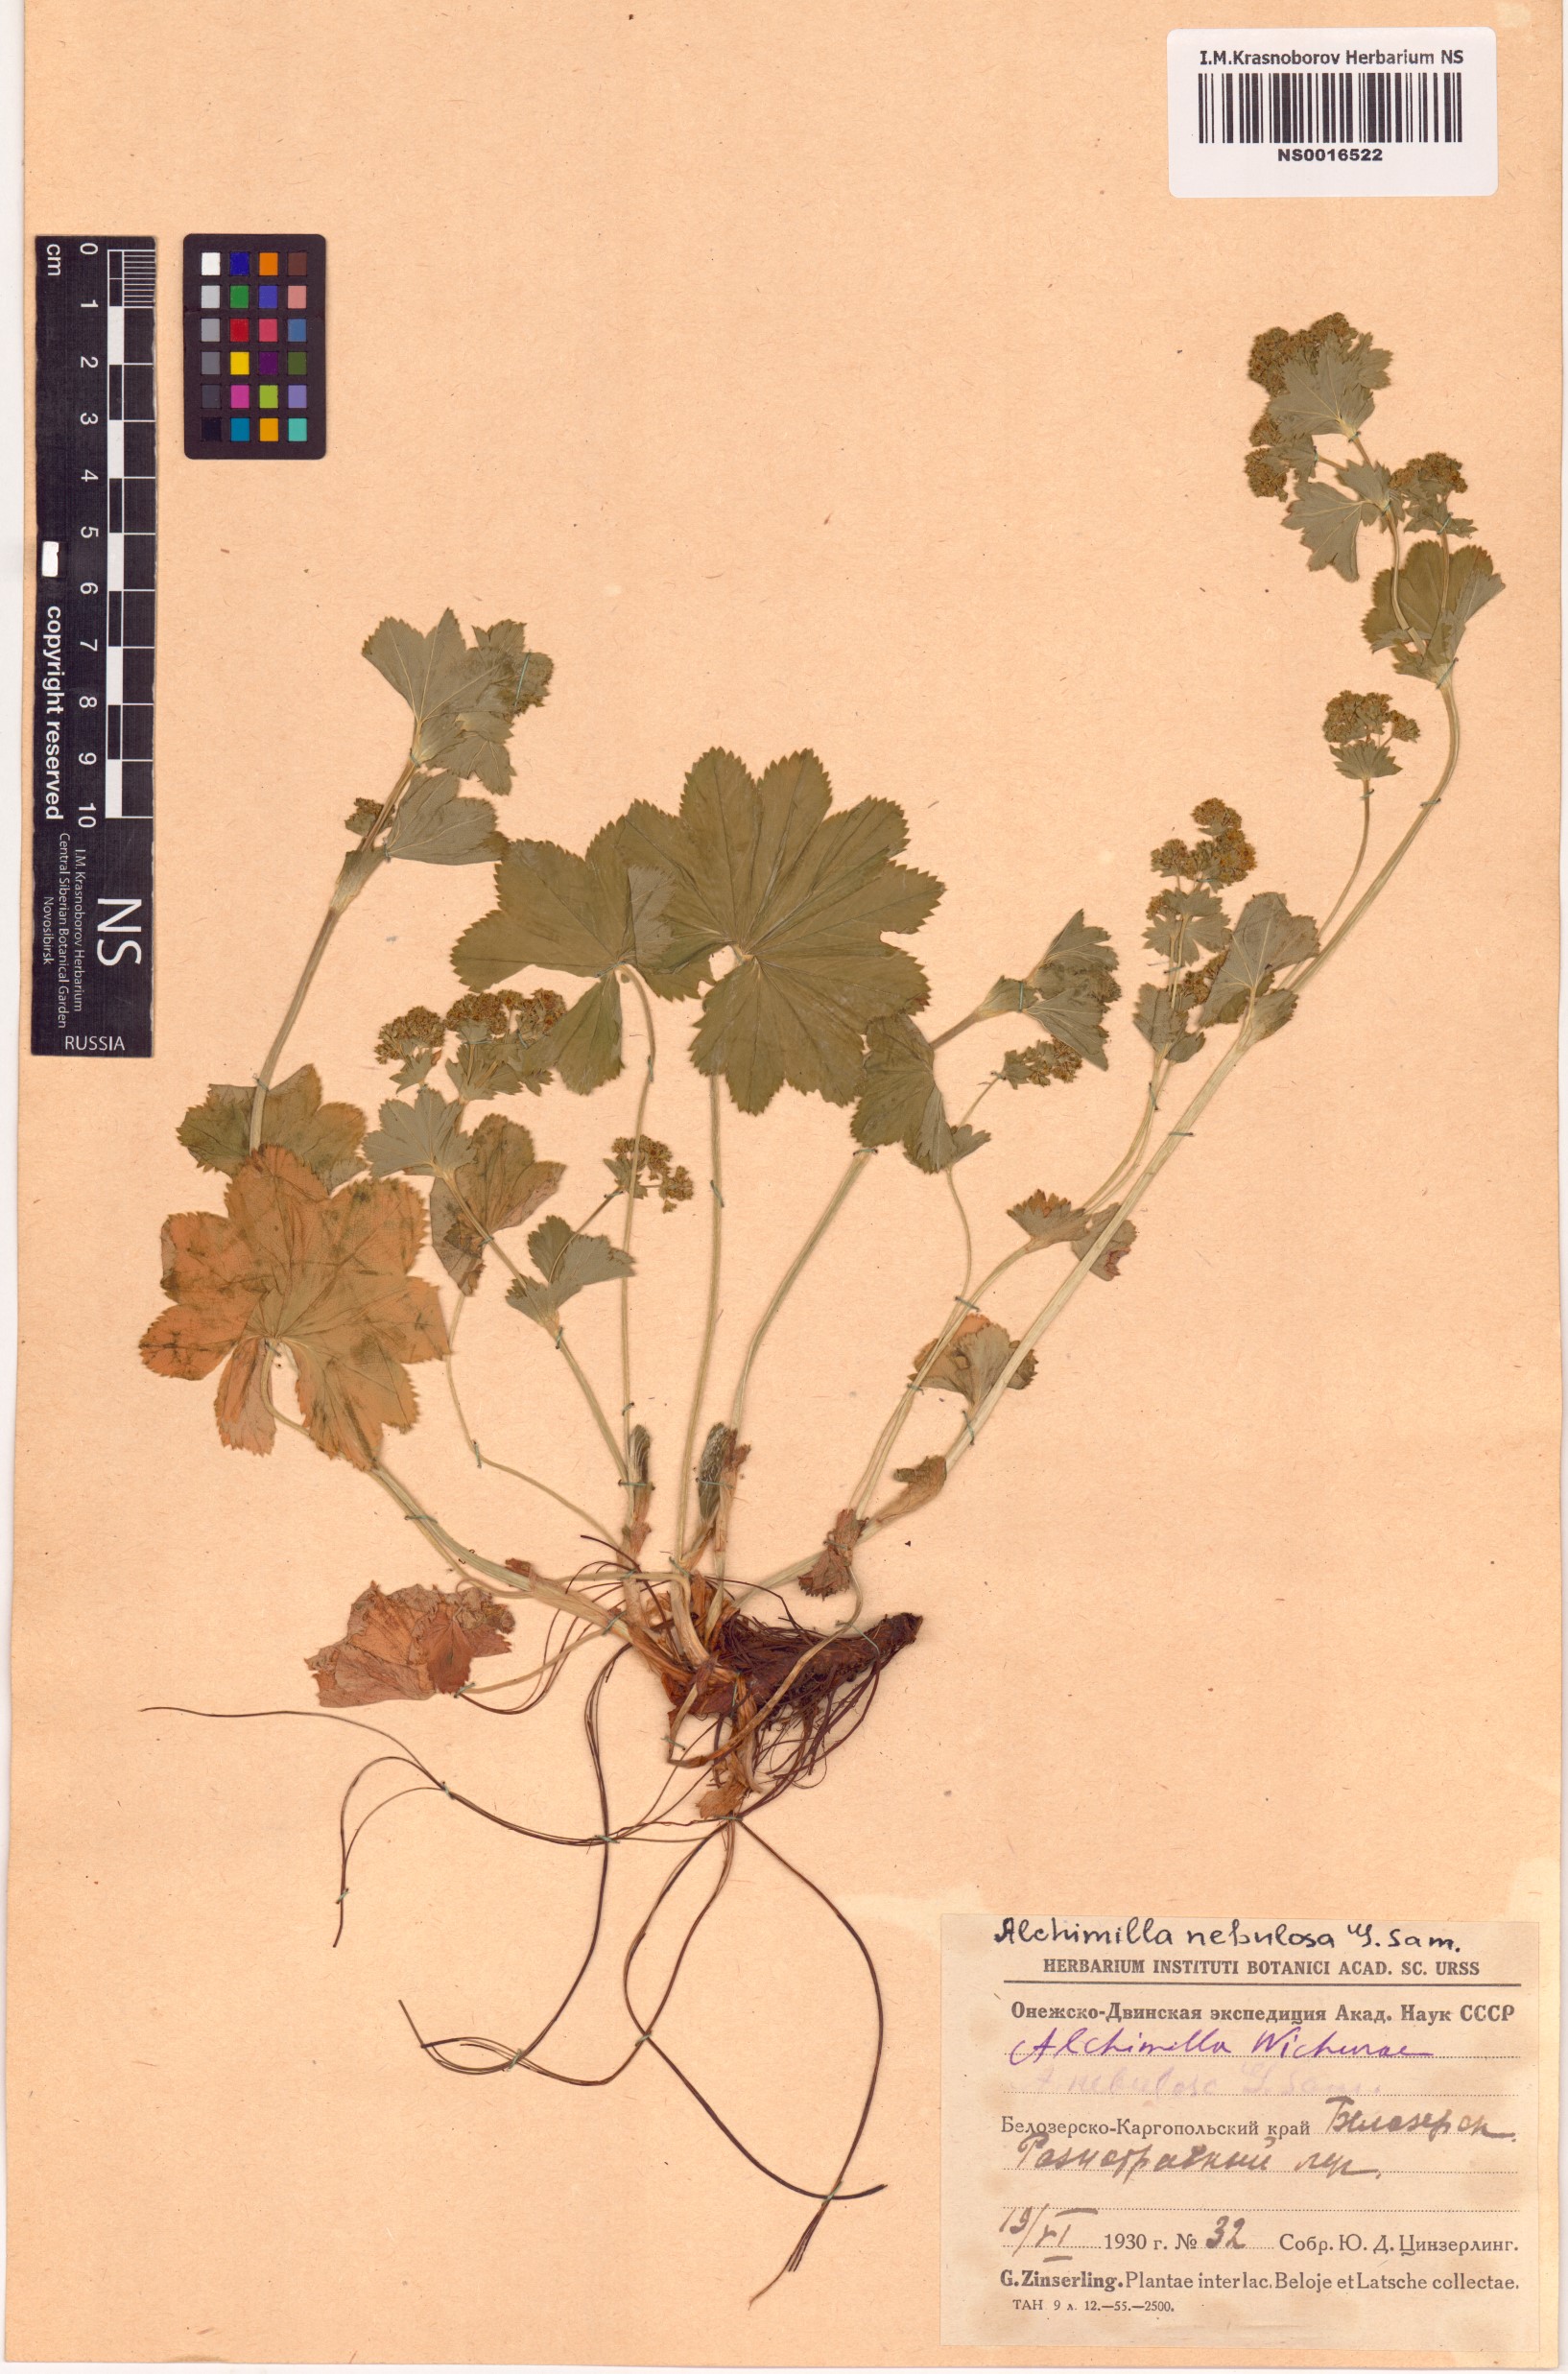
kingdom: Plantae
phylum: Tracheophyta
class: Magnoliopsida
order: Rosales
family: Rosaceae
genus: Alchemilla
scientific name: Alchemilla baltica
